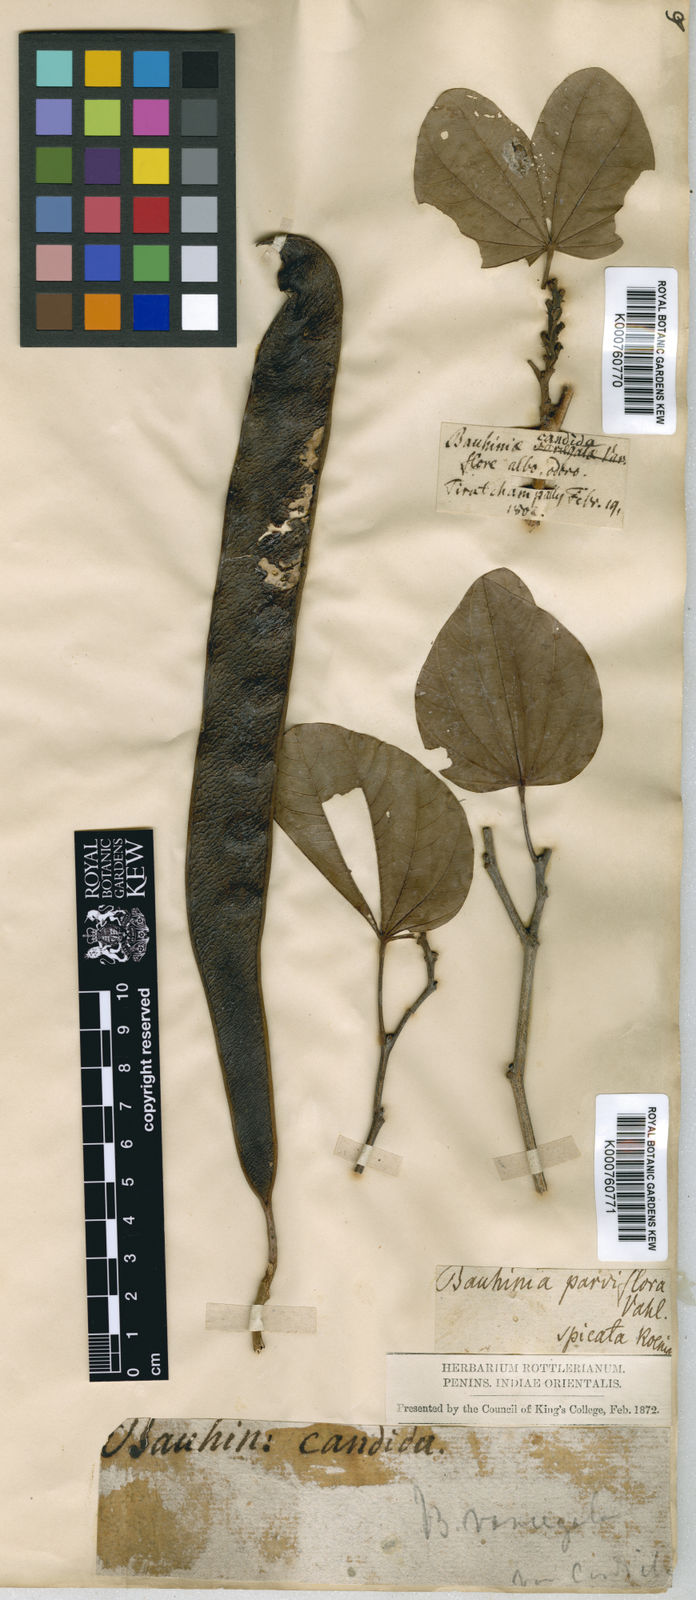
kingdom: Plantae
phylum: Tracheophyta
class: Magnoliopsida
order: Fabales
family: Fabaceae
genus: Bauhinia
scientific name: Bauhinia variegata
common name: Mountain ebony
